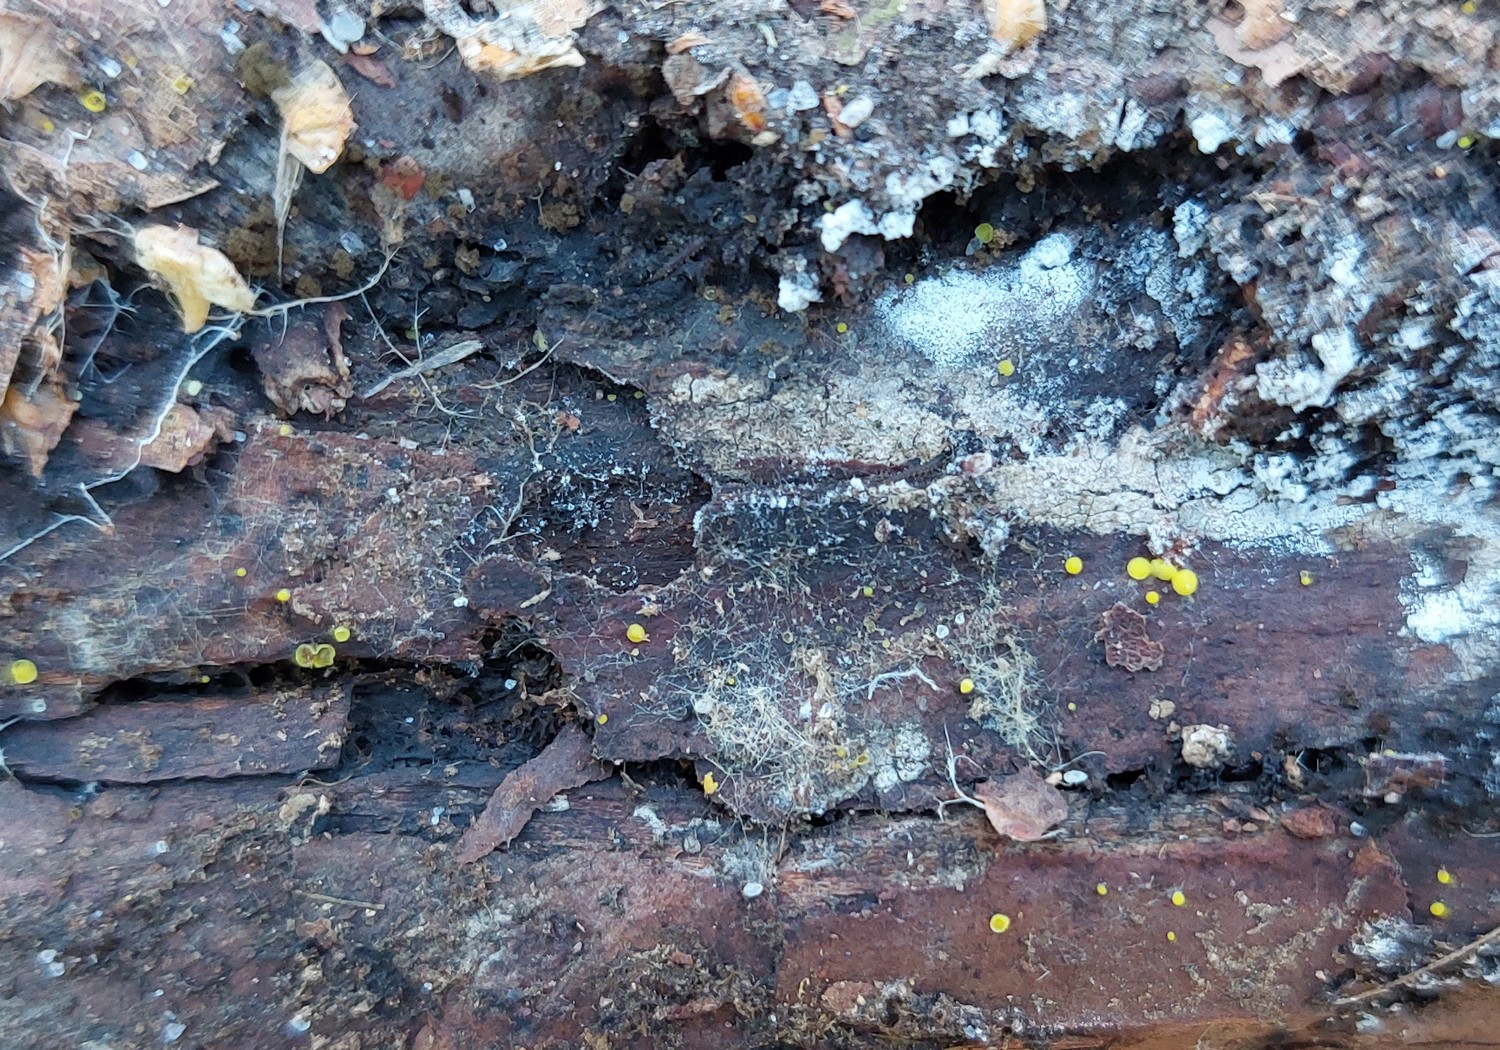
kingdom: Fungi
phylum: Ascomycota
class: Leotiomycetes
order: Helotiales
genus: Lemalis
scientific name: Lemalis aurea
